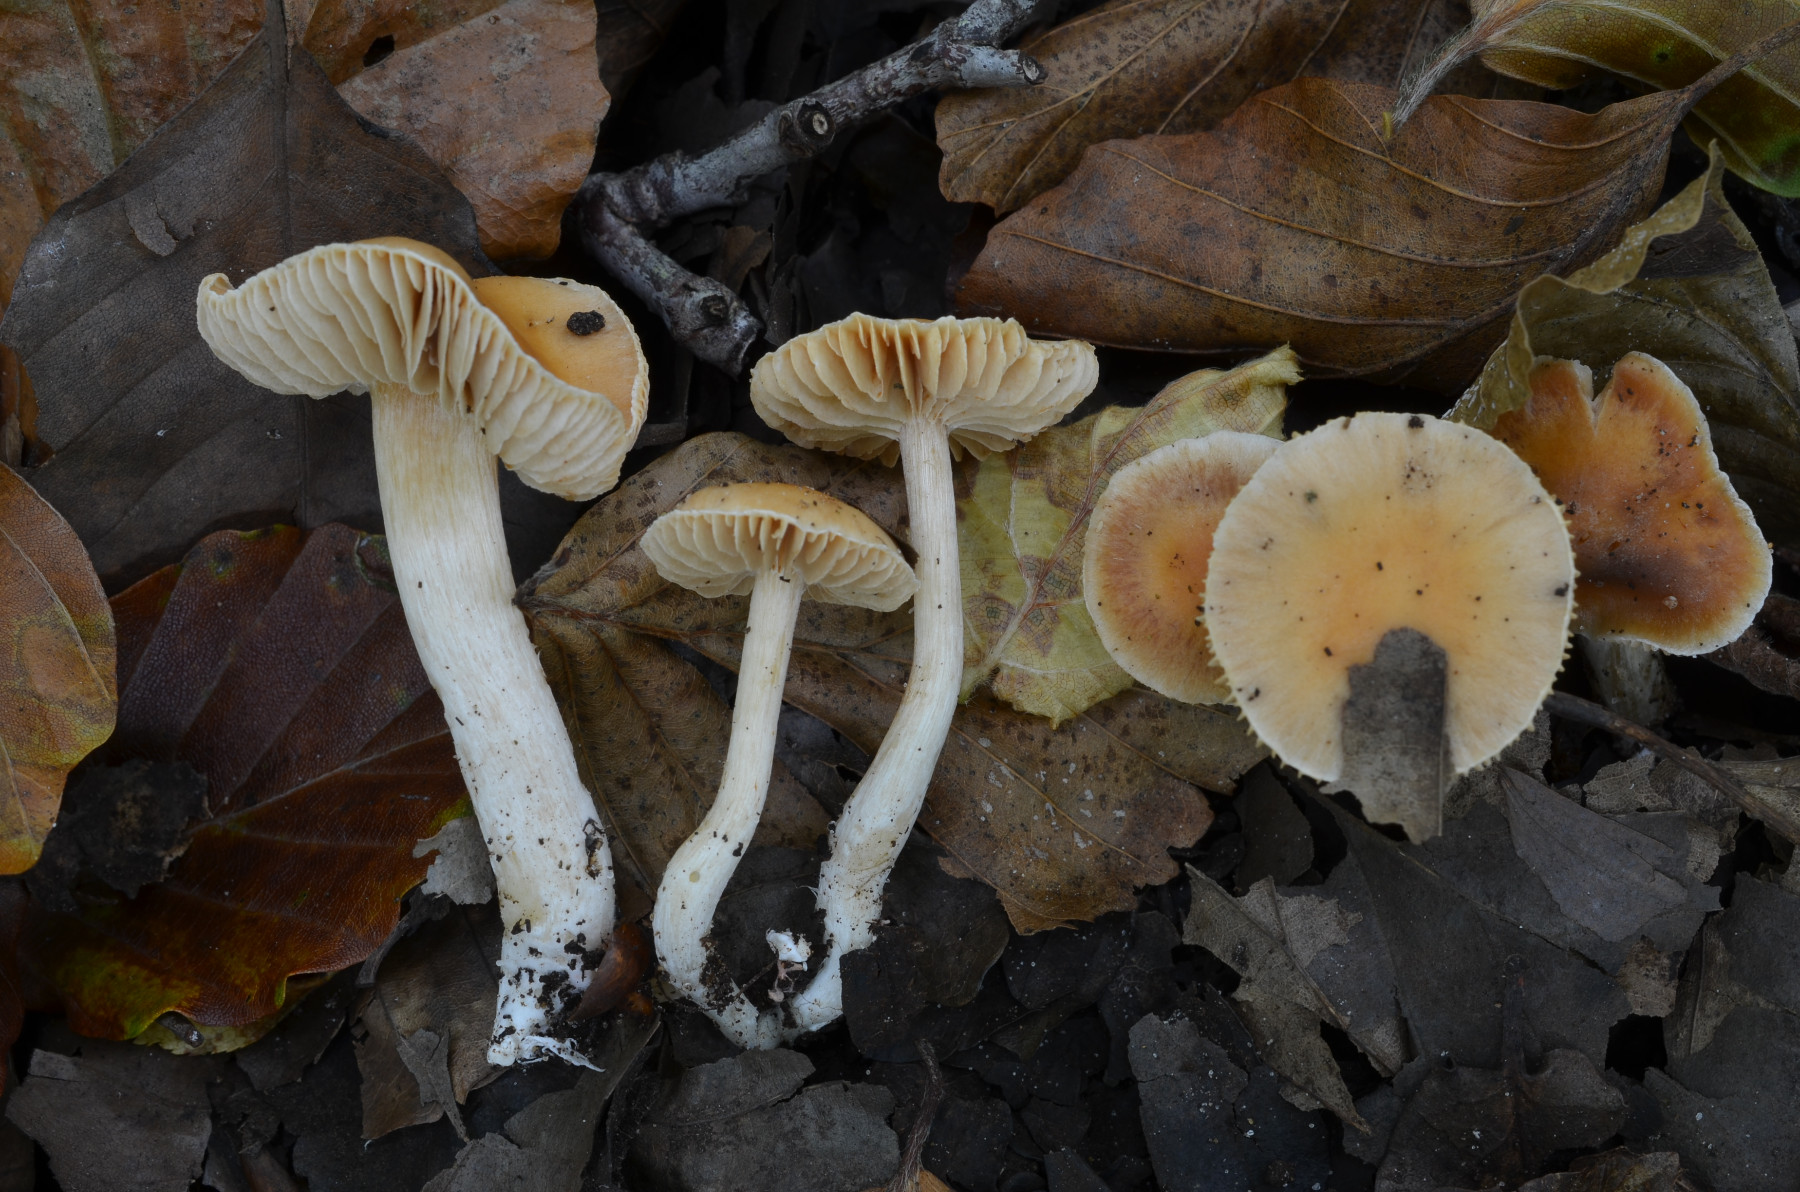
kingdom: Fungi
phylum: Basidiomycota
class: Agaricomycetes
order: Agaricales
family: Cortinariaceae
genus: Cortinarius
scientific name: Cortinarius croceocristallinus
